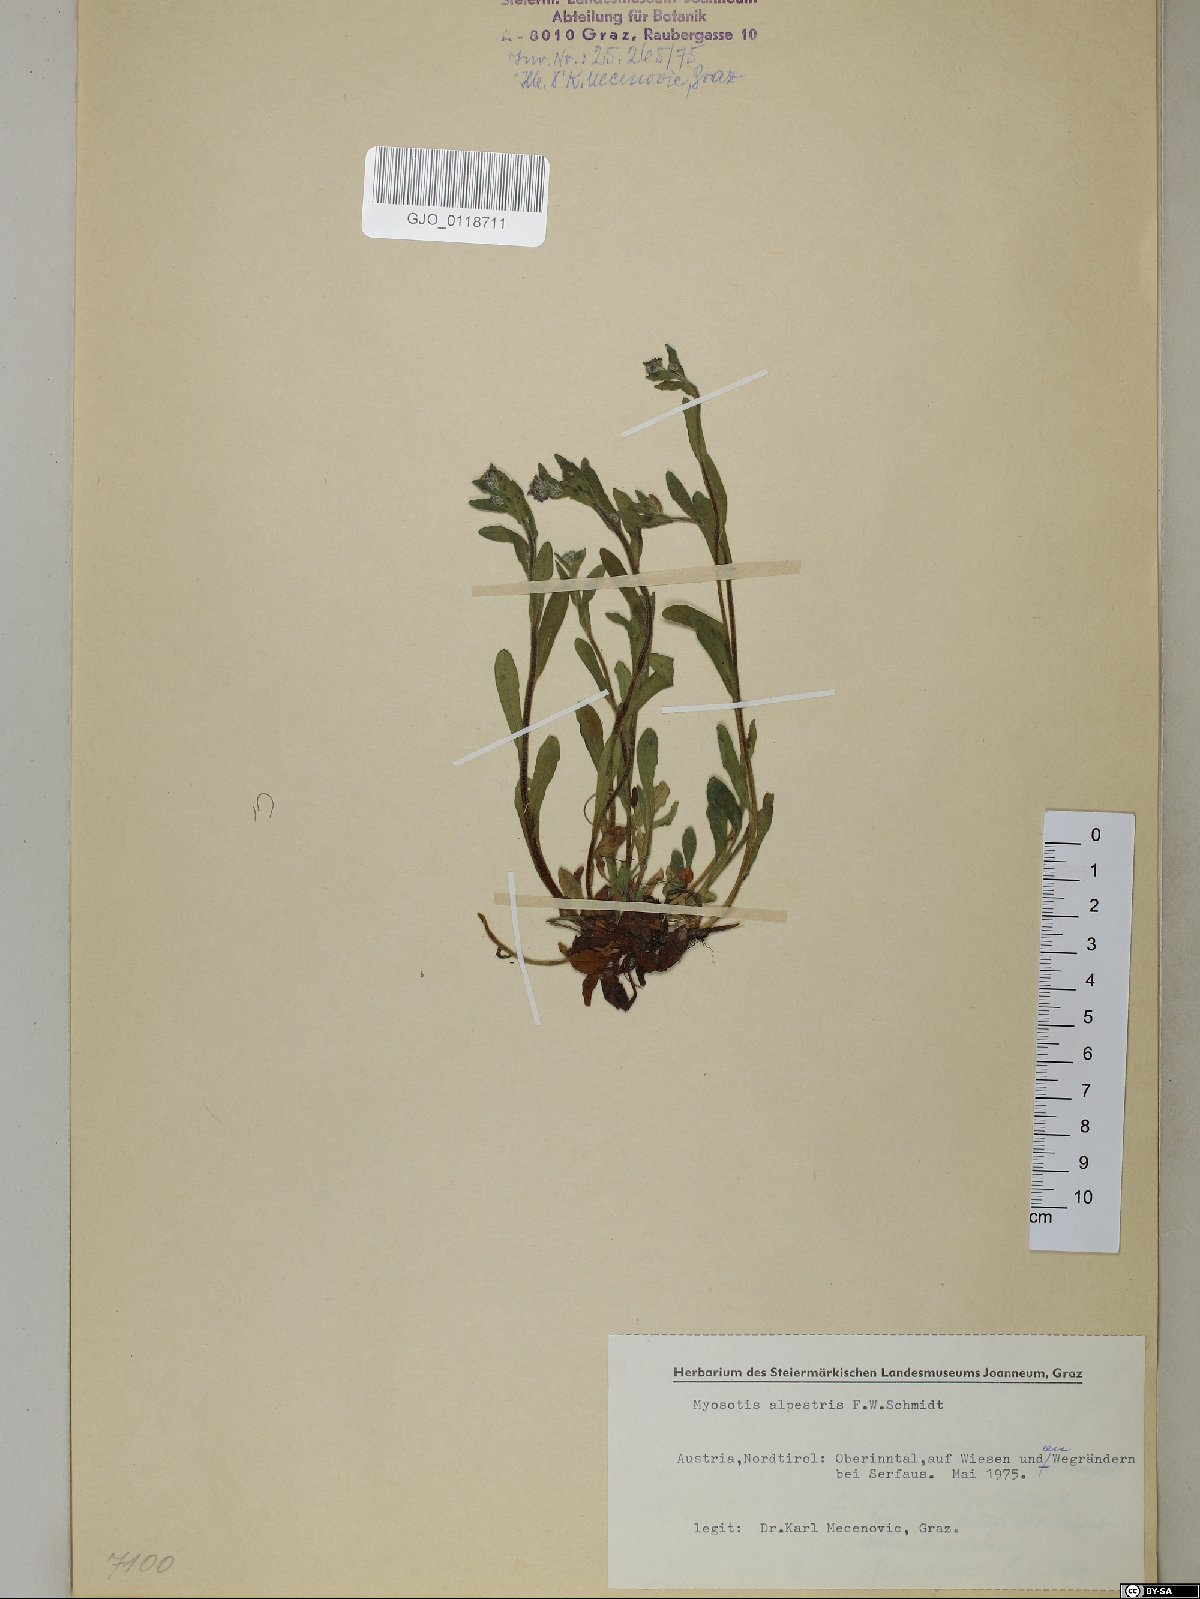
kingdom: Plantae
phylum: Tracheophyta
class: Magnoliopsida
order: Boraginales
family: Boraginaceae
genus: Myosotis
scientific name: Myosotis alpestris
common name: Alpine forget-me-not
